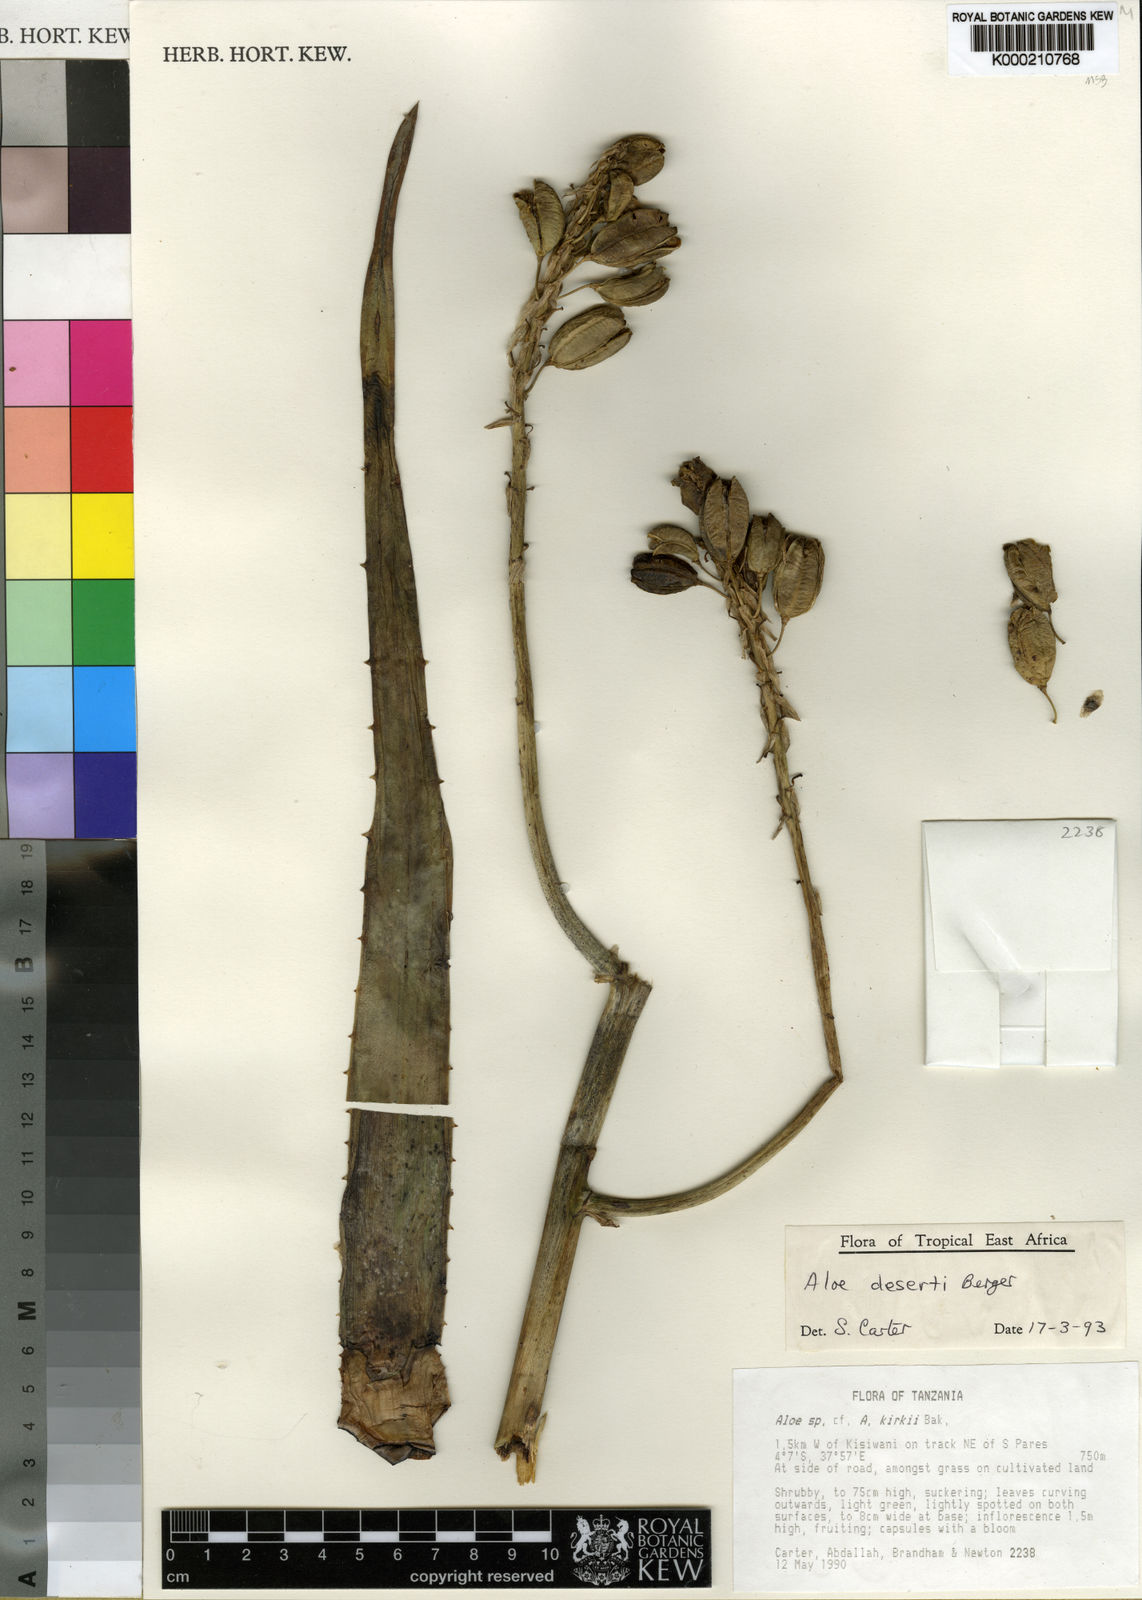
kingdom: Plantae
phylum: Tracheophyta
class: Liliopsida
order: Asparagales
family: Asphodelaceae
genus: Aloe
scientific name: Aloe deserti
